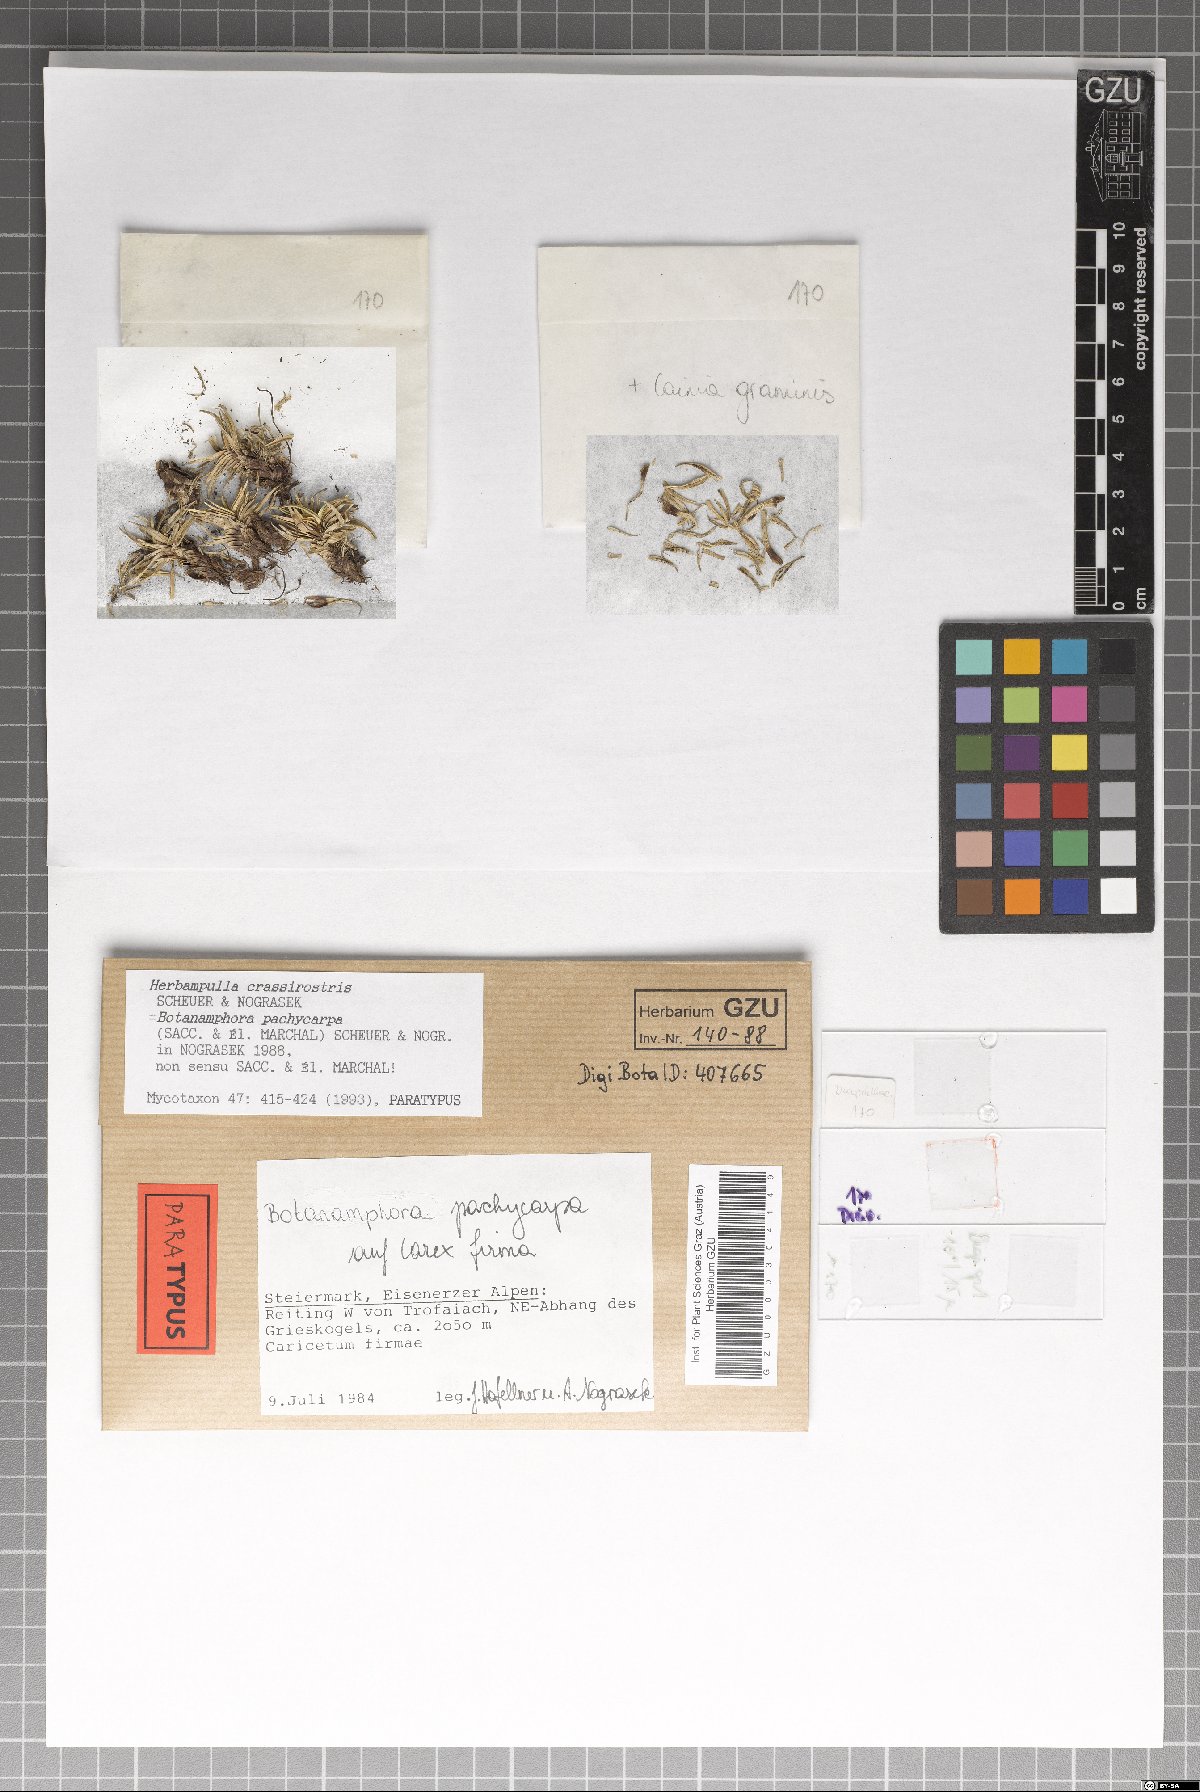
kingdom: Fungi
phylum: Ascomycota
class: Sordariomycetes
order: Magnaporthales
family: Magnaporthaceae
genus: Herbampulla
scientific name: Herbampulla crassirostris
